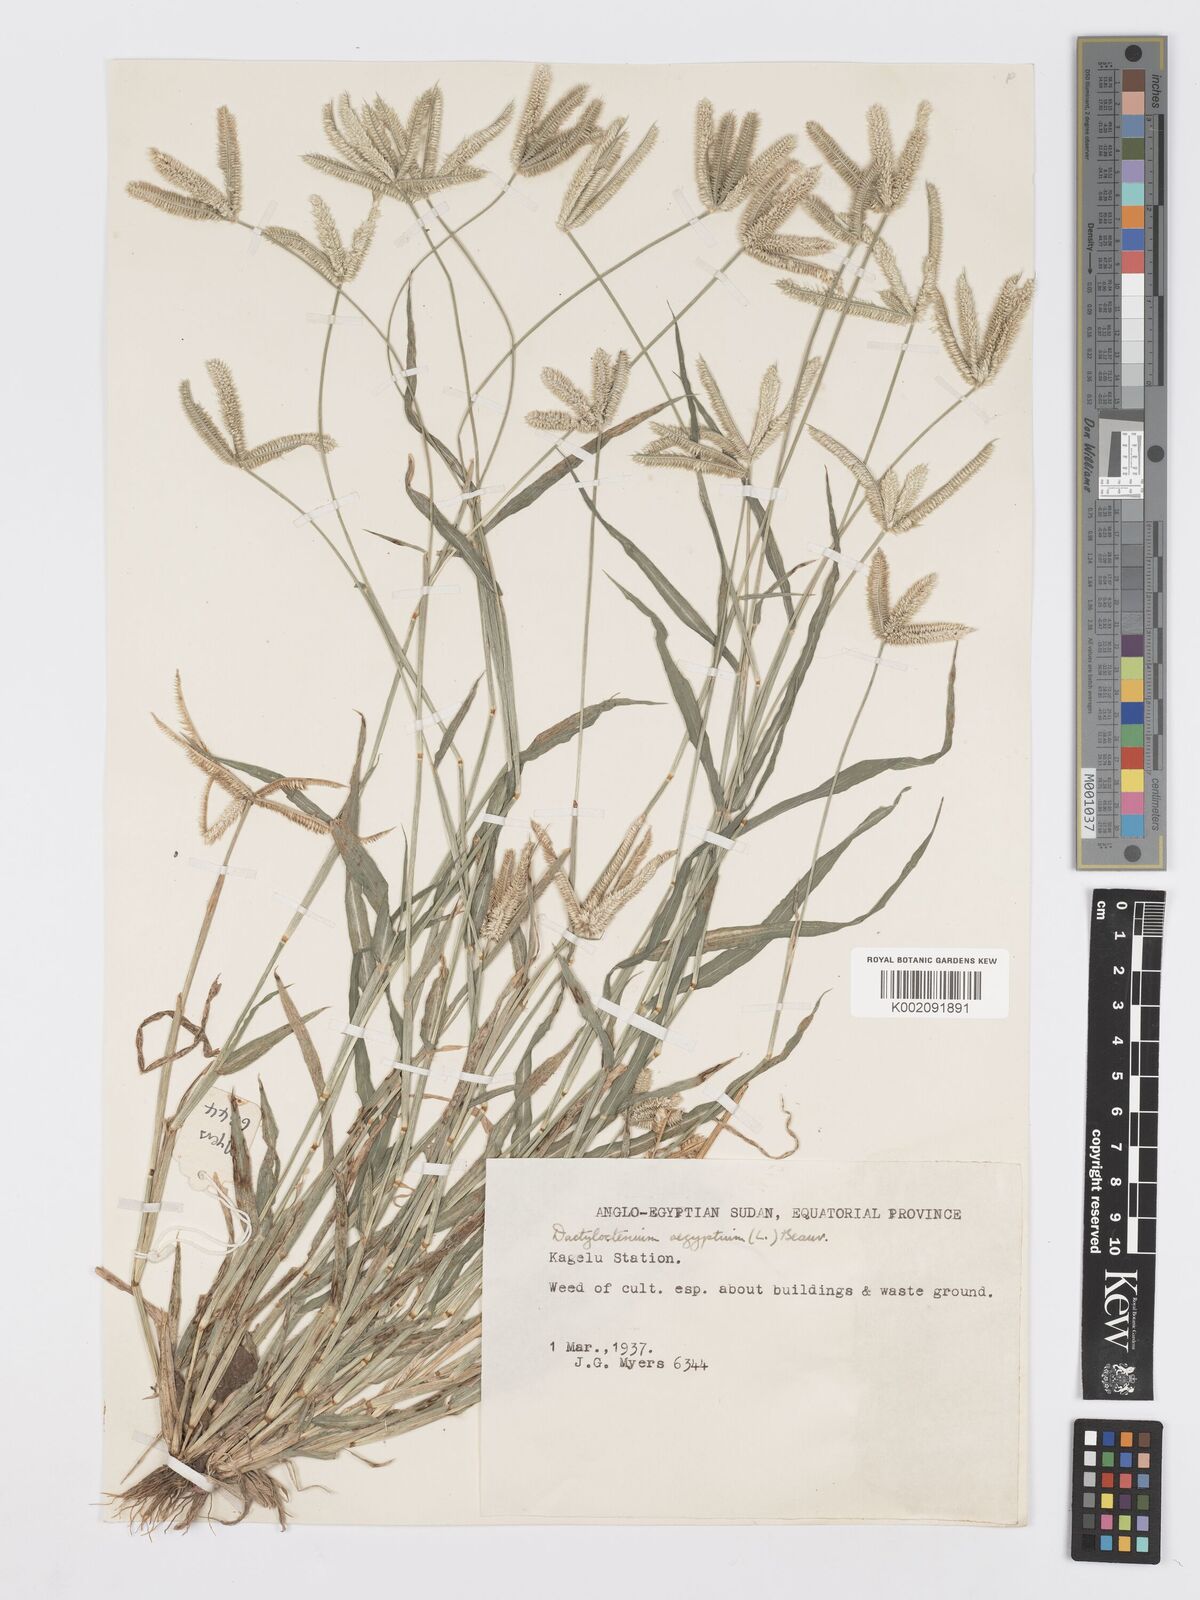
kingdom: Plantae
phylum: Tracheophyta
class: Liliopsida
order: Poales
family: Poaceae
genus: Dactyloctenium
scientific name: Dactyloctenium aegyptium
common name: Egyptian grass
